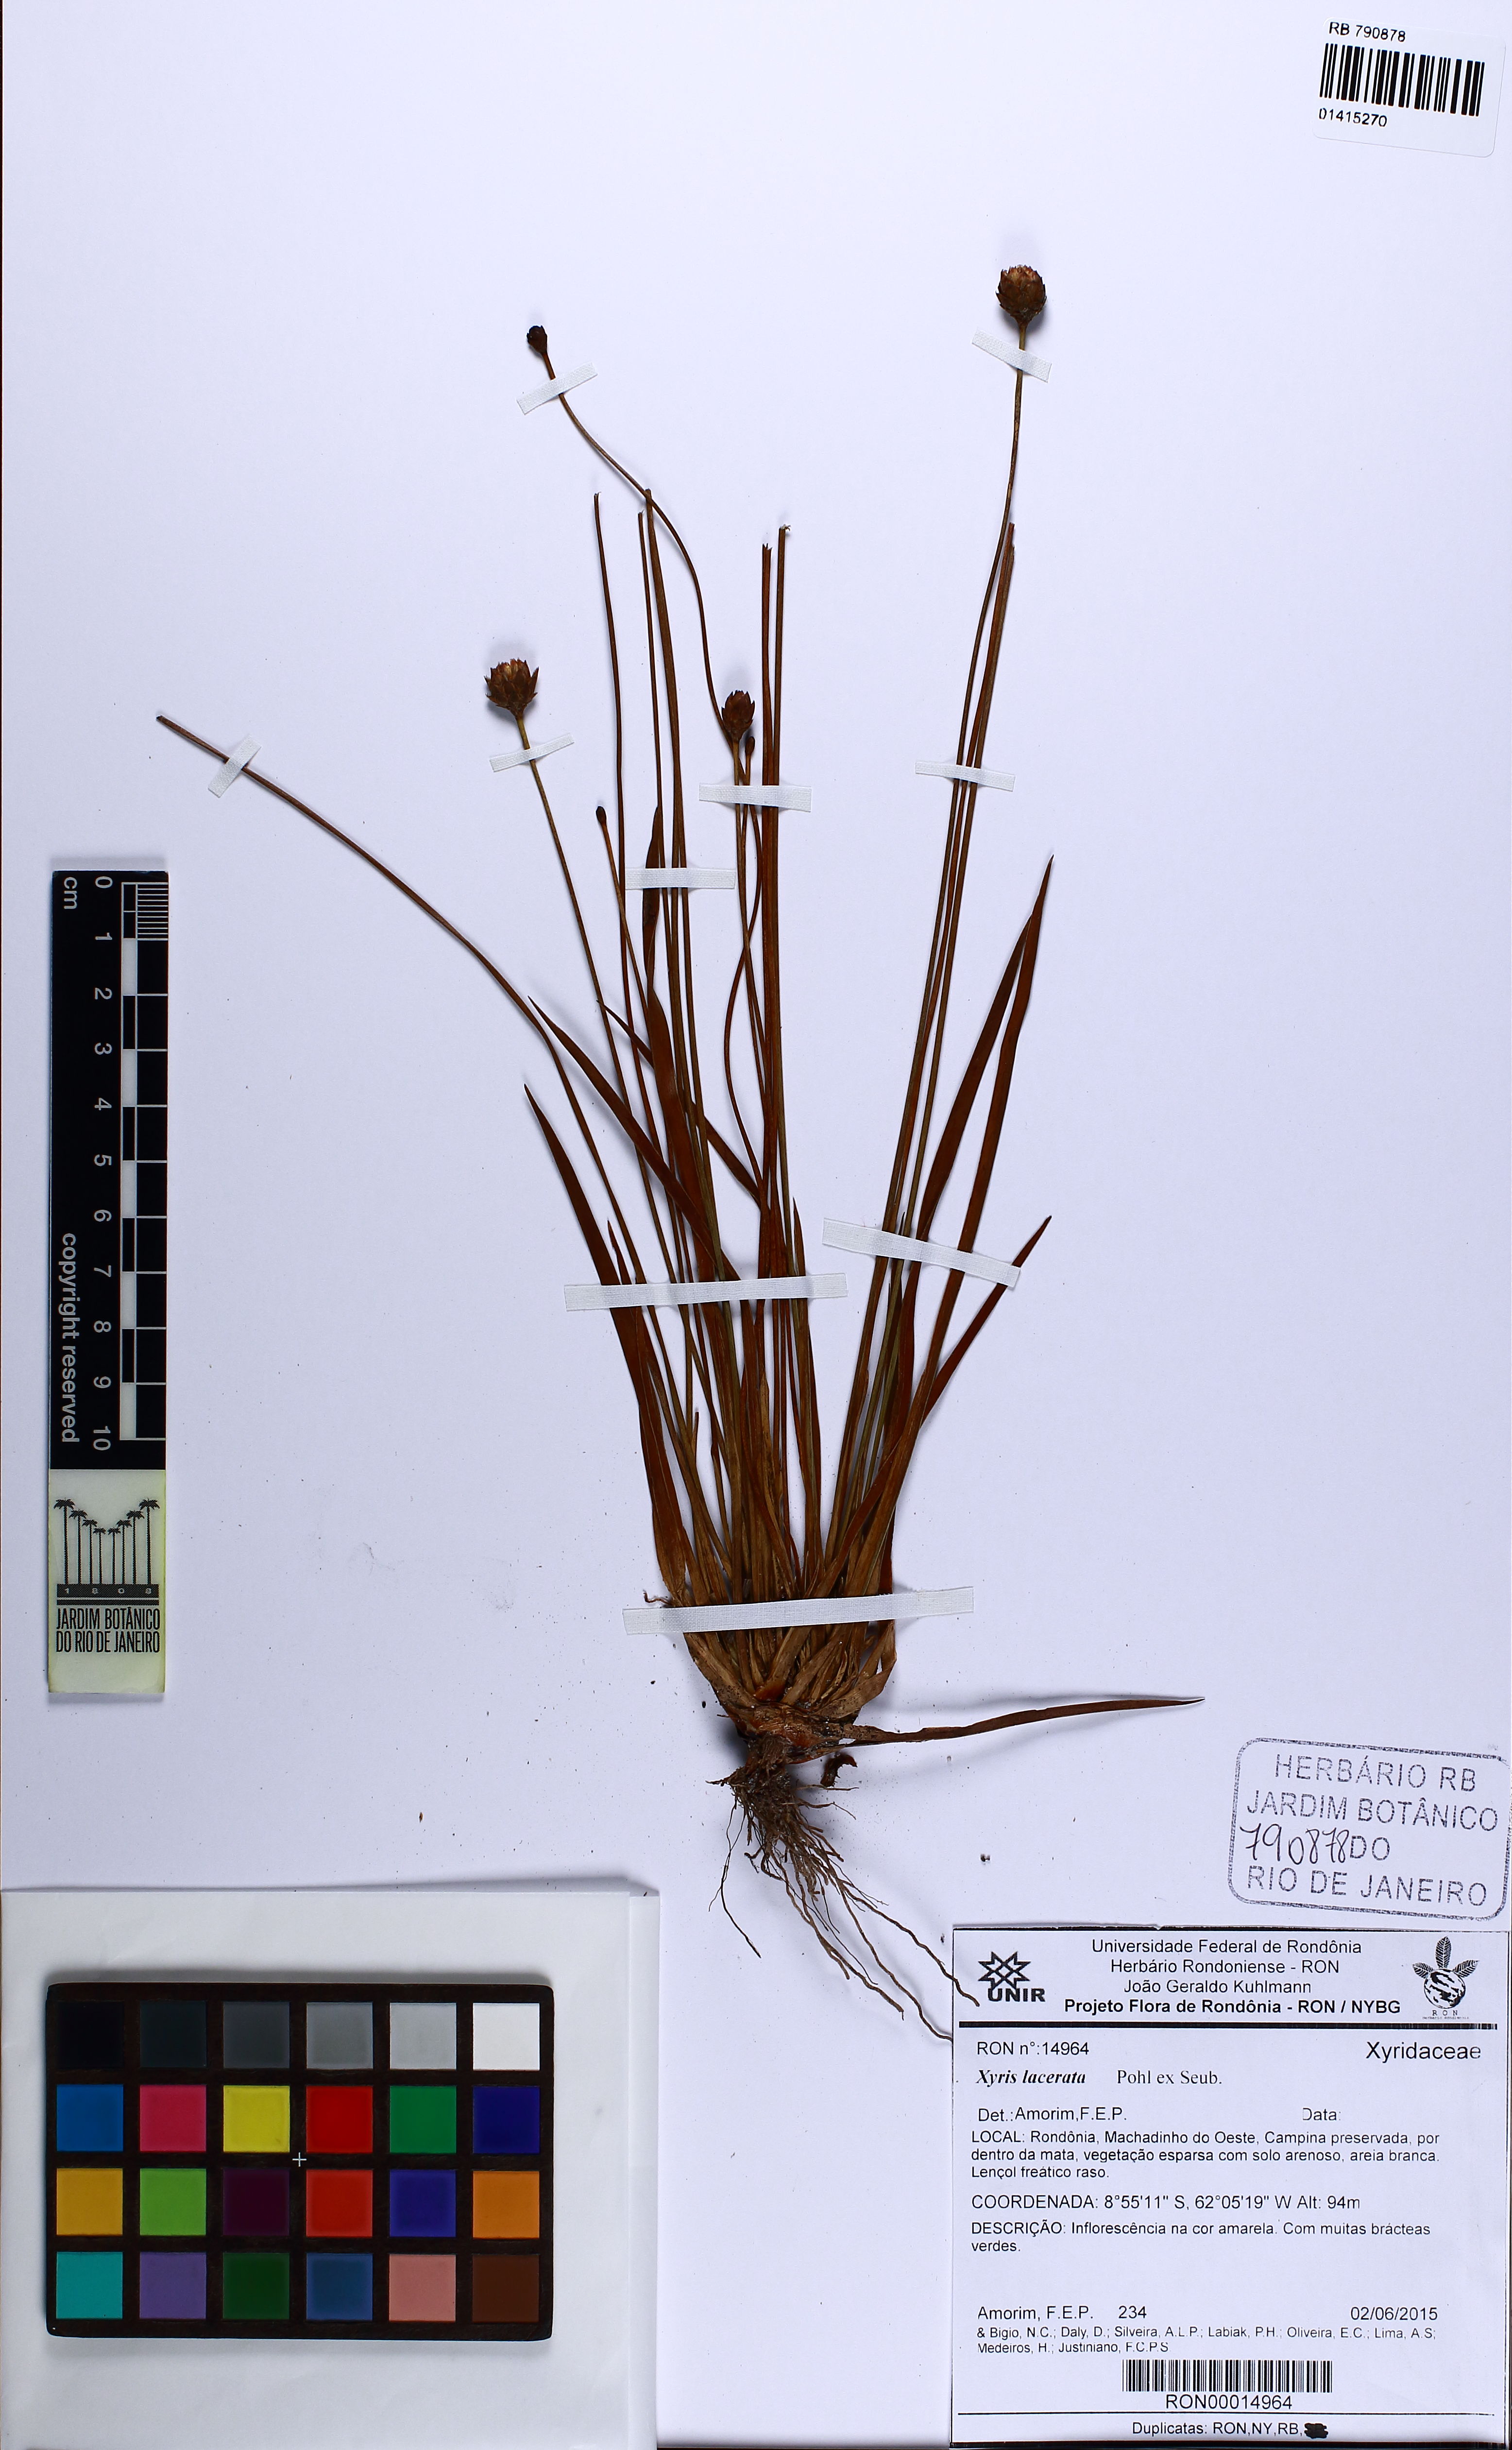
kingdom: Plantae
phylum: Tracheophyta
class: Liliopsida
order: Poales
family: Xyridaceae
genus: Xyris
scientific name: Xyris lacerata
